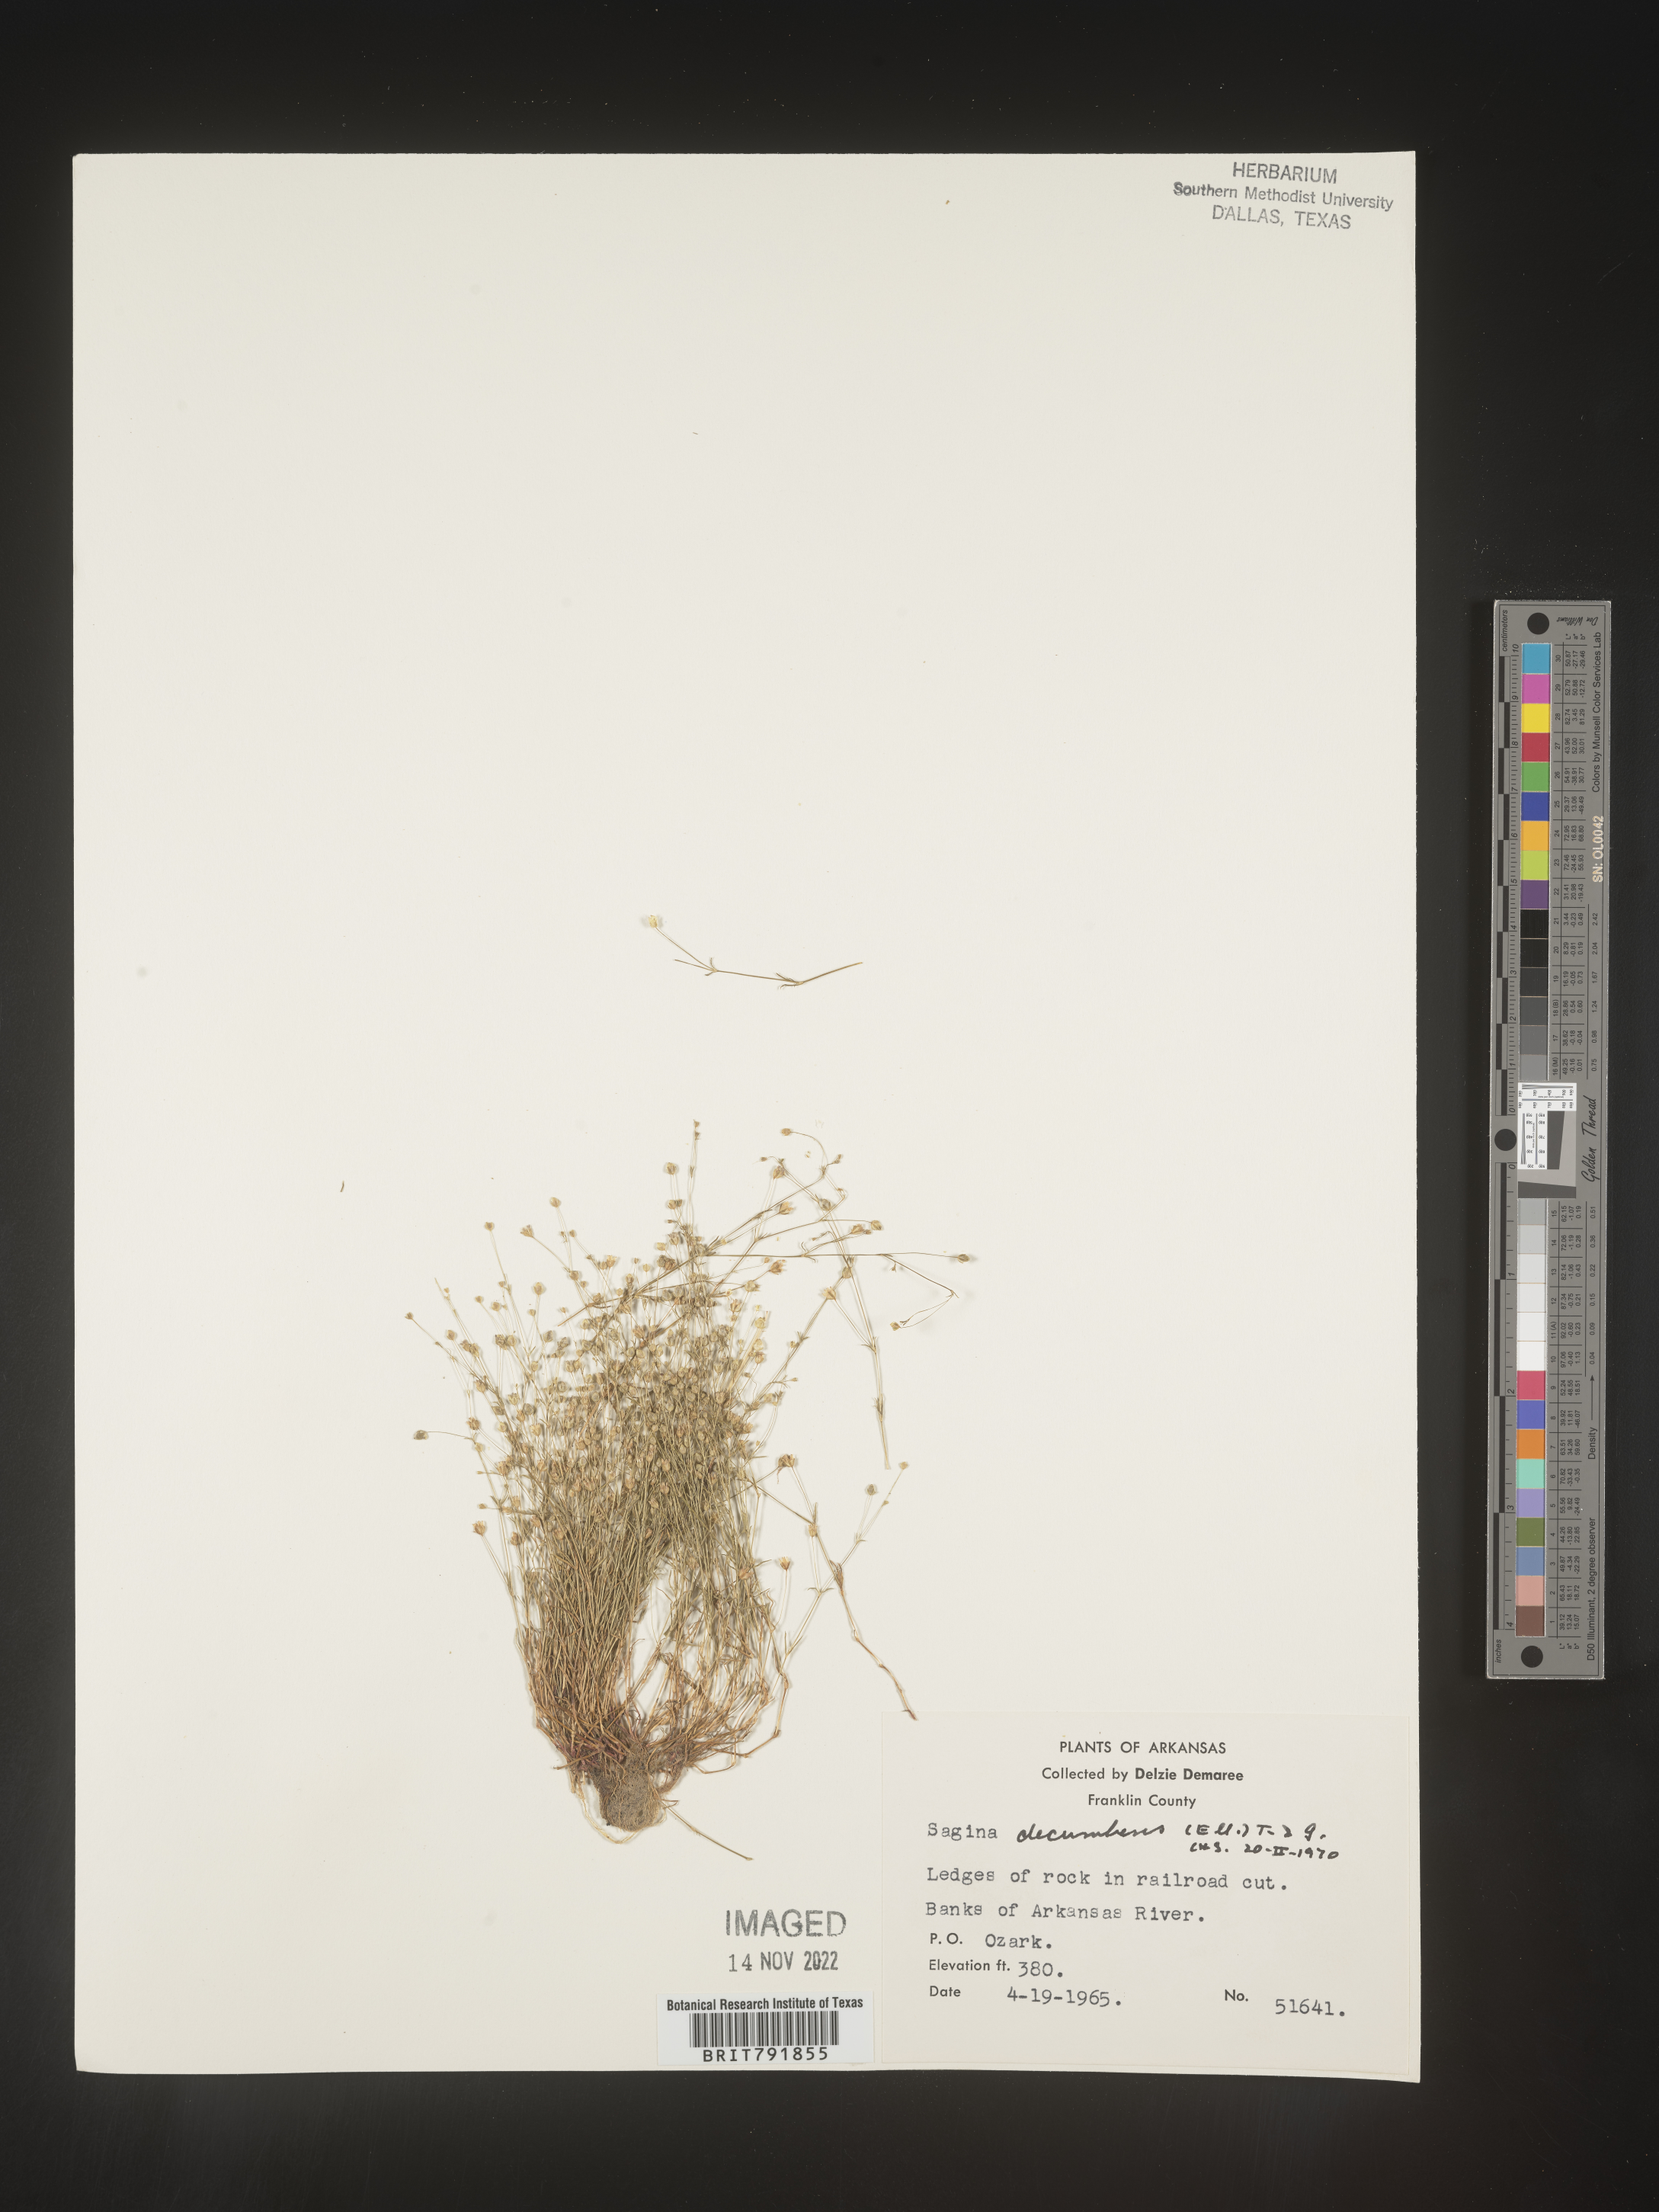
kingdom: Plantae
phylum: Tracheophyta
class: Magnoliopsida
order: Caryophyllales
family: Caryophyllaceae
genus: Sagina
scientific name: Sagina decumbens
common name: Decumbent pearlwort
